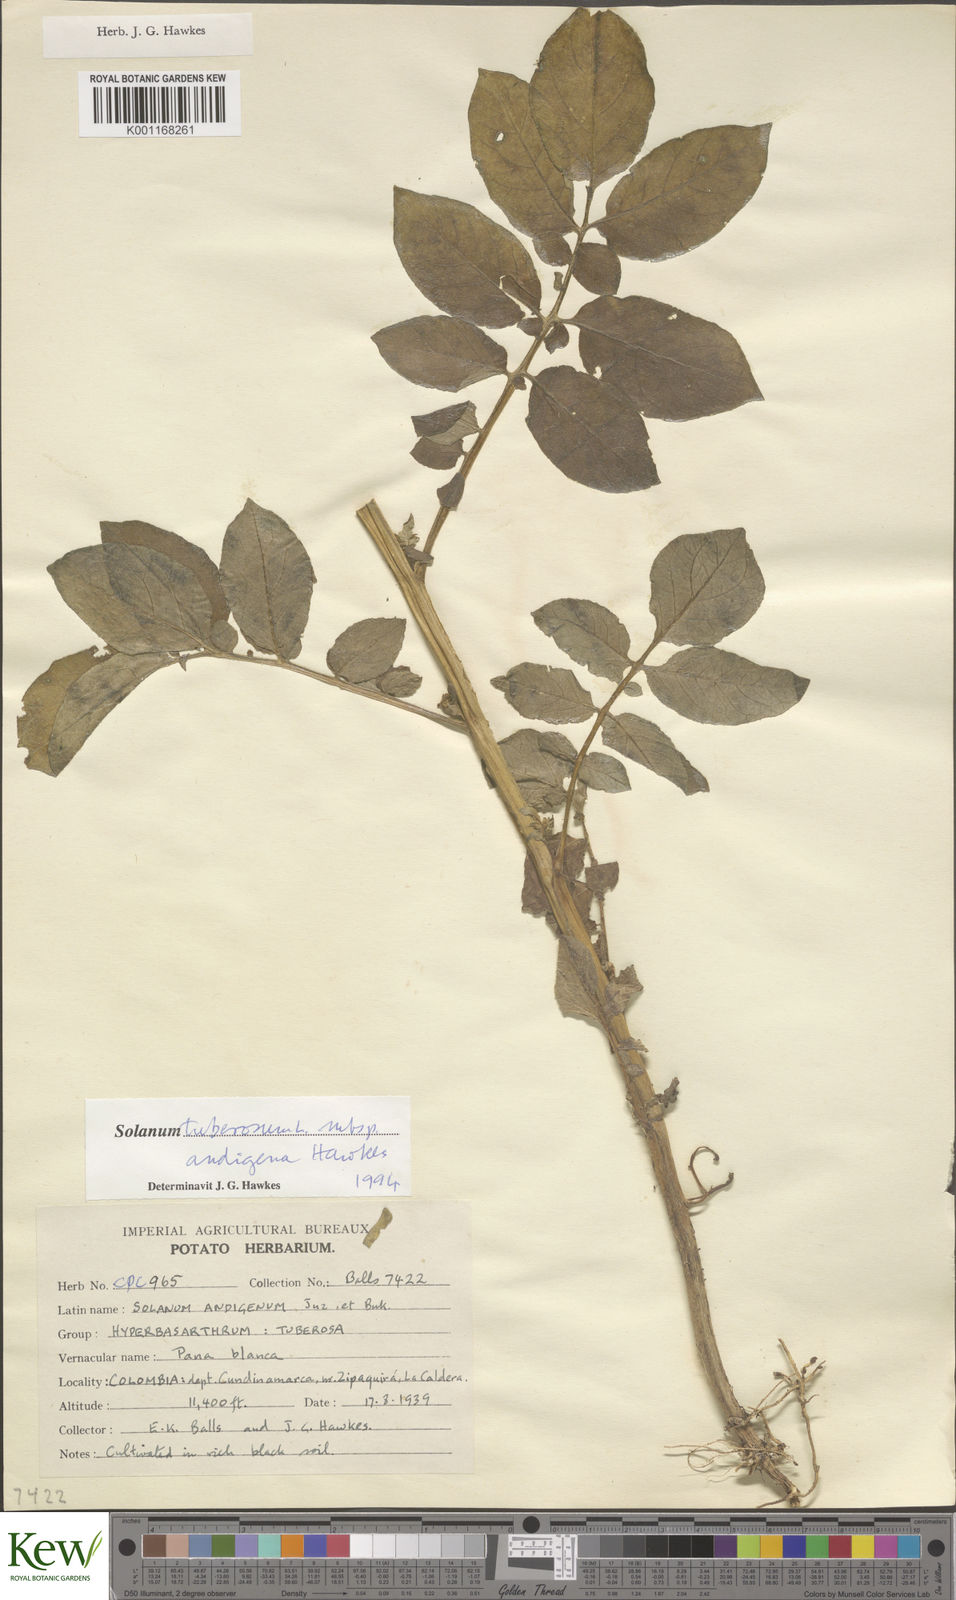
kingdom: Plantae
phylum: Tracheophyta
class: Magnoliopsida
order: Solanales
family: Solanaceae
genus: Solanum
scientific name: Solanum tuberosum
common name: Potato
